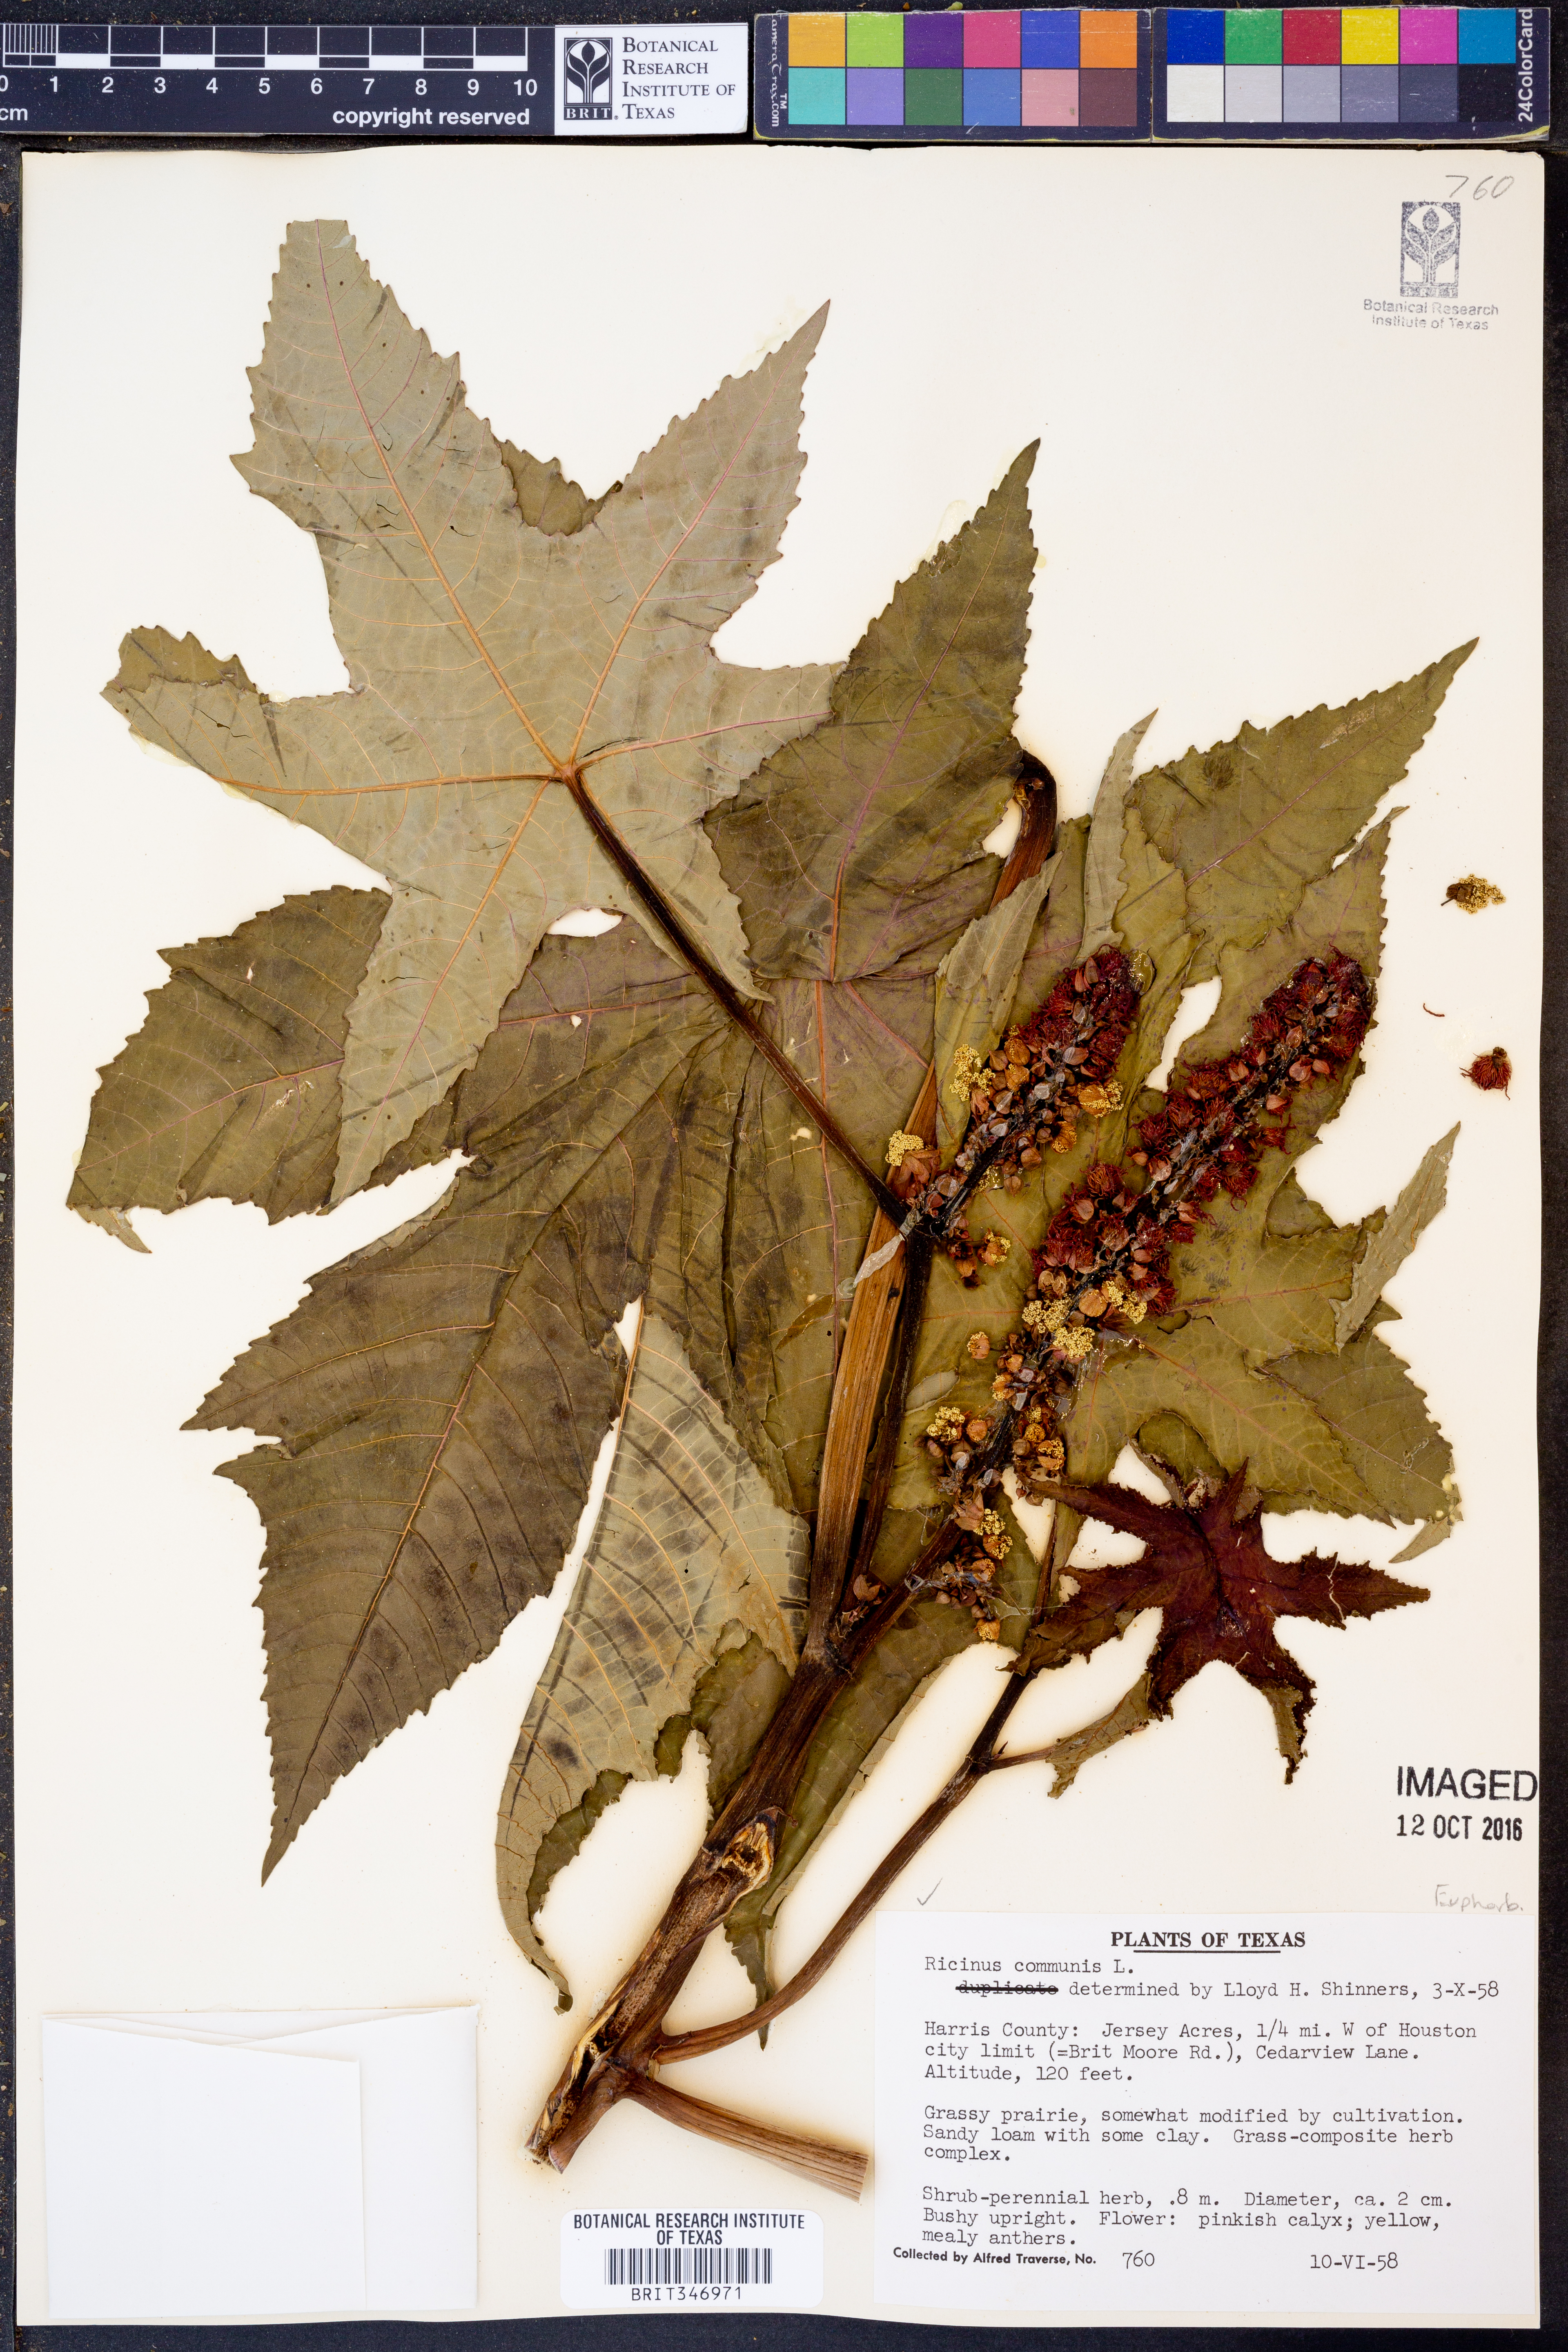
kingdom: Plantae
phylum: Tracheophyta
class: Magnoliopsida
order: Malpighiales
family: Euphorbiaceae
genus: Ricinus
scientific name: Ricinus communis
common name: Castor-oil-plant
